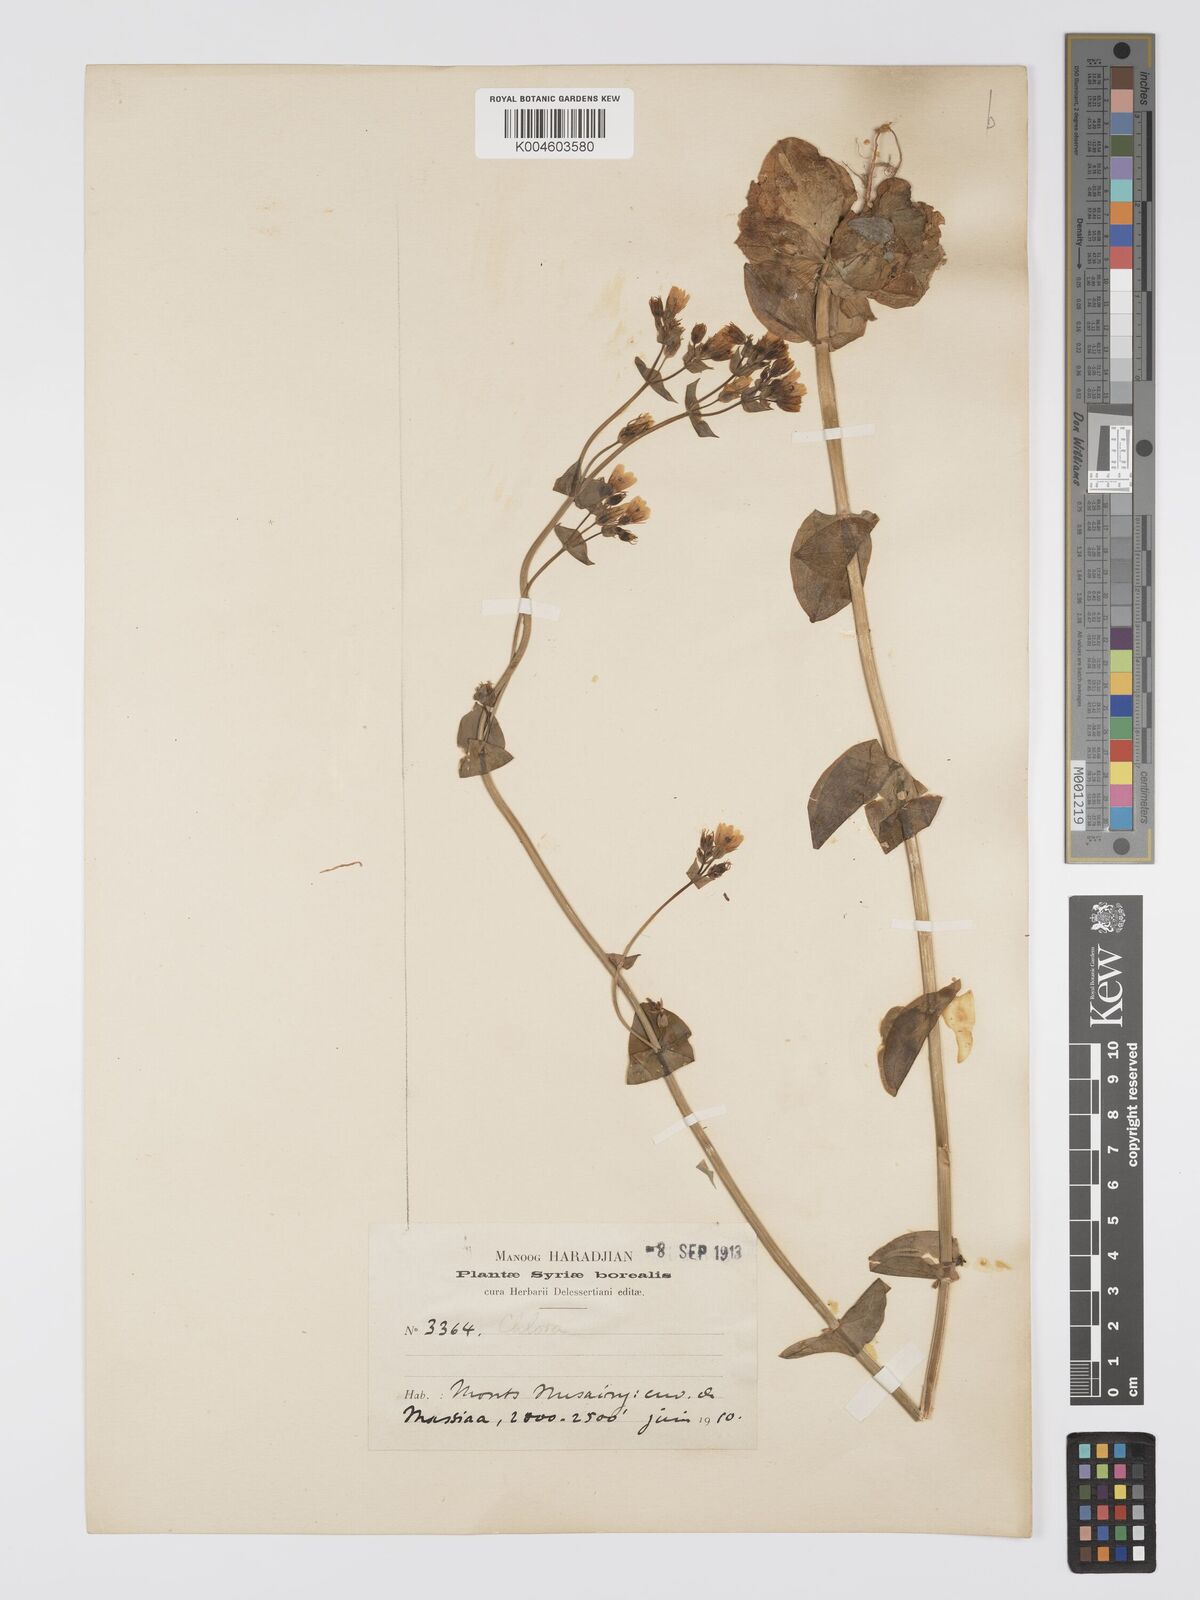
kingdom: Plantae
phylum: Tracheophyta
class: Magnoliopsida
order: Gentianales
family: Gentianaceae
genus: Blackstonia
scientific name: Blackstonia perfoliata
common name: Yellow-wort
